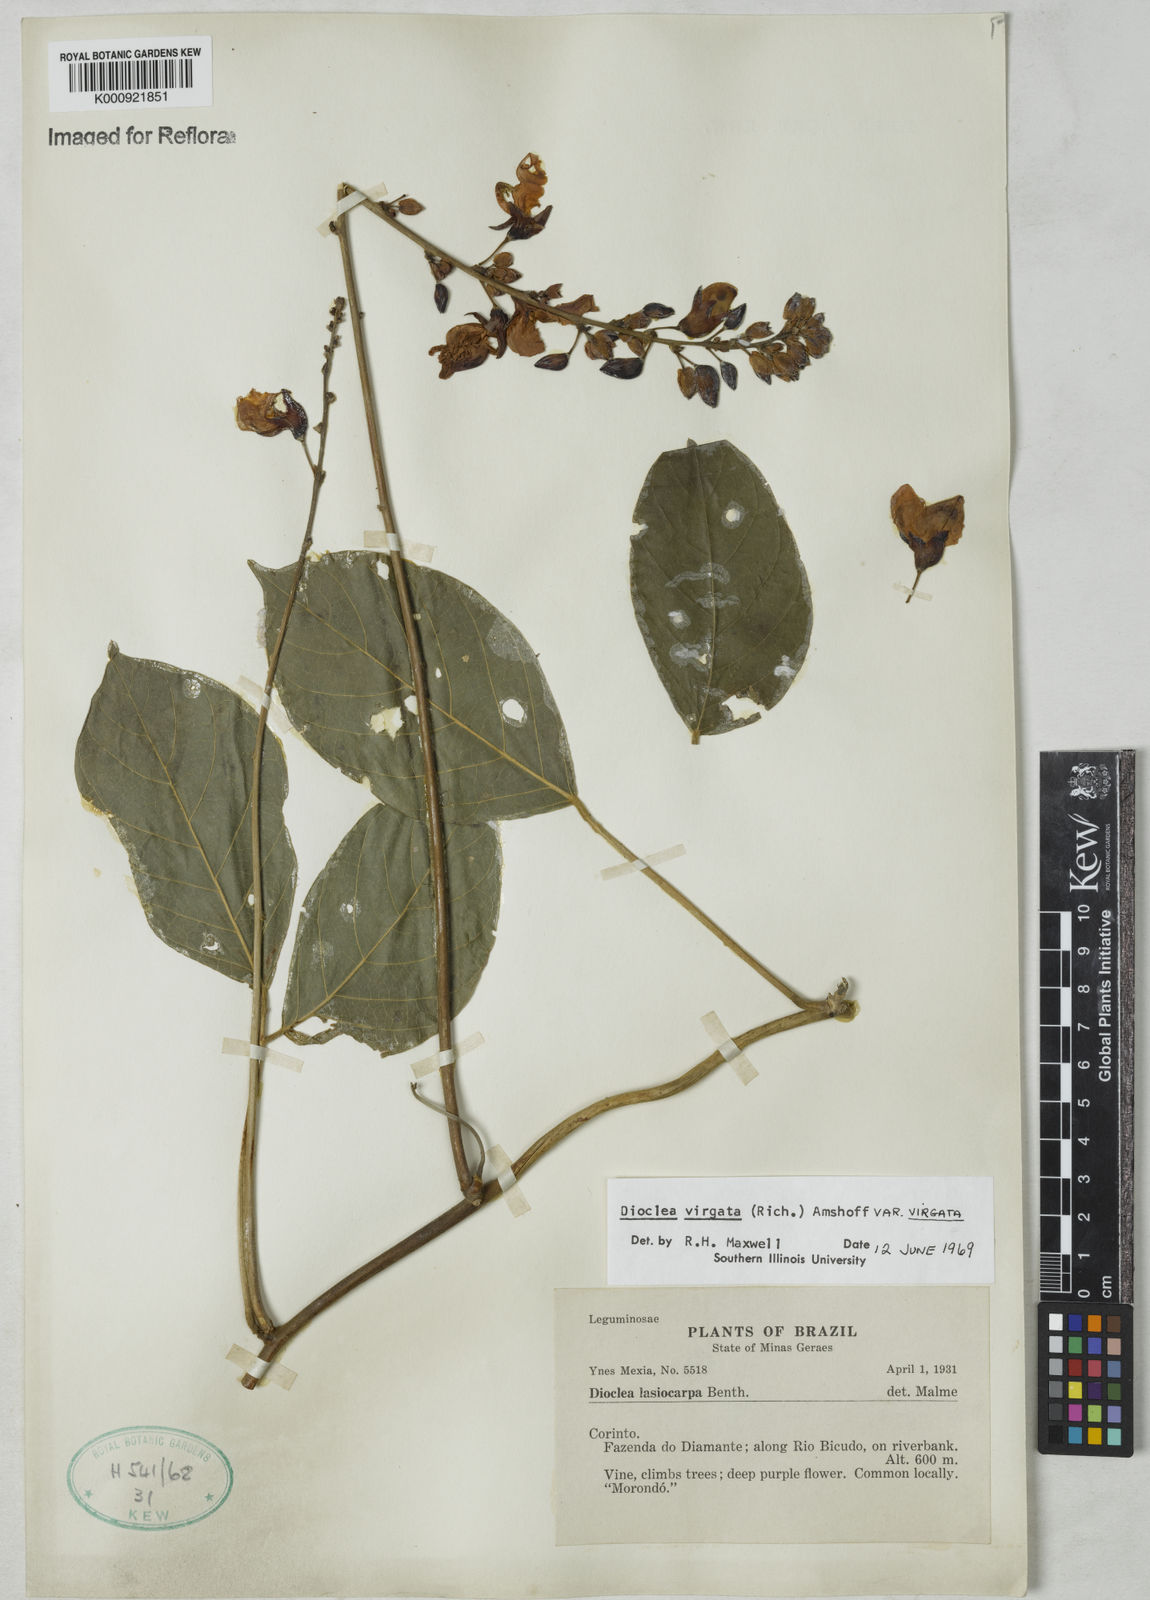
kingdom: Plantae
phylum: Tracheophyta
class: Magnoliopsida
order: Fabales
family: Fabaceae
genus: Dioclea
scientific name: Dioclea virgata
